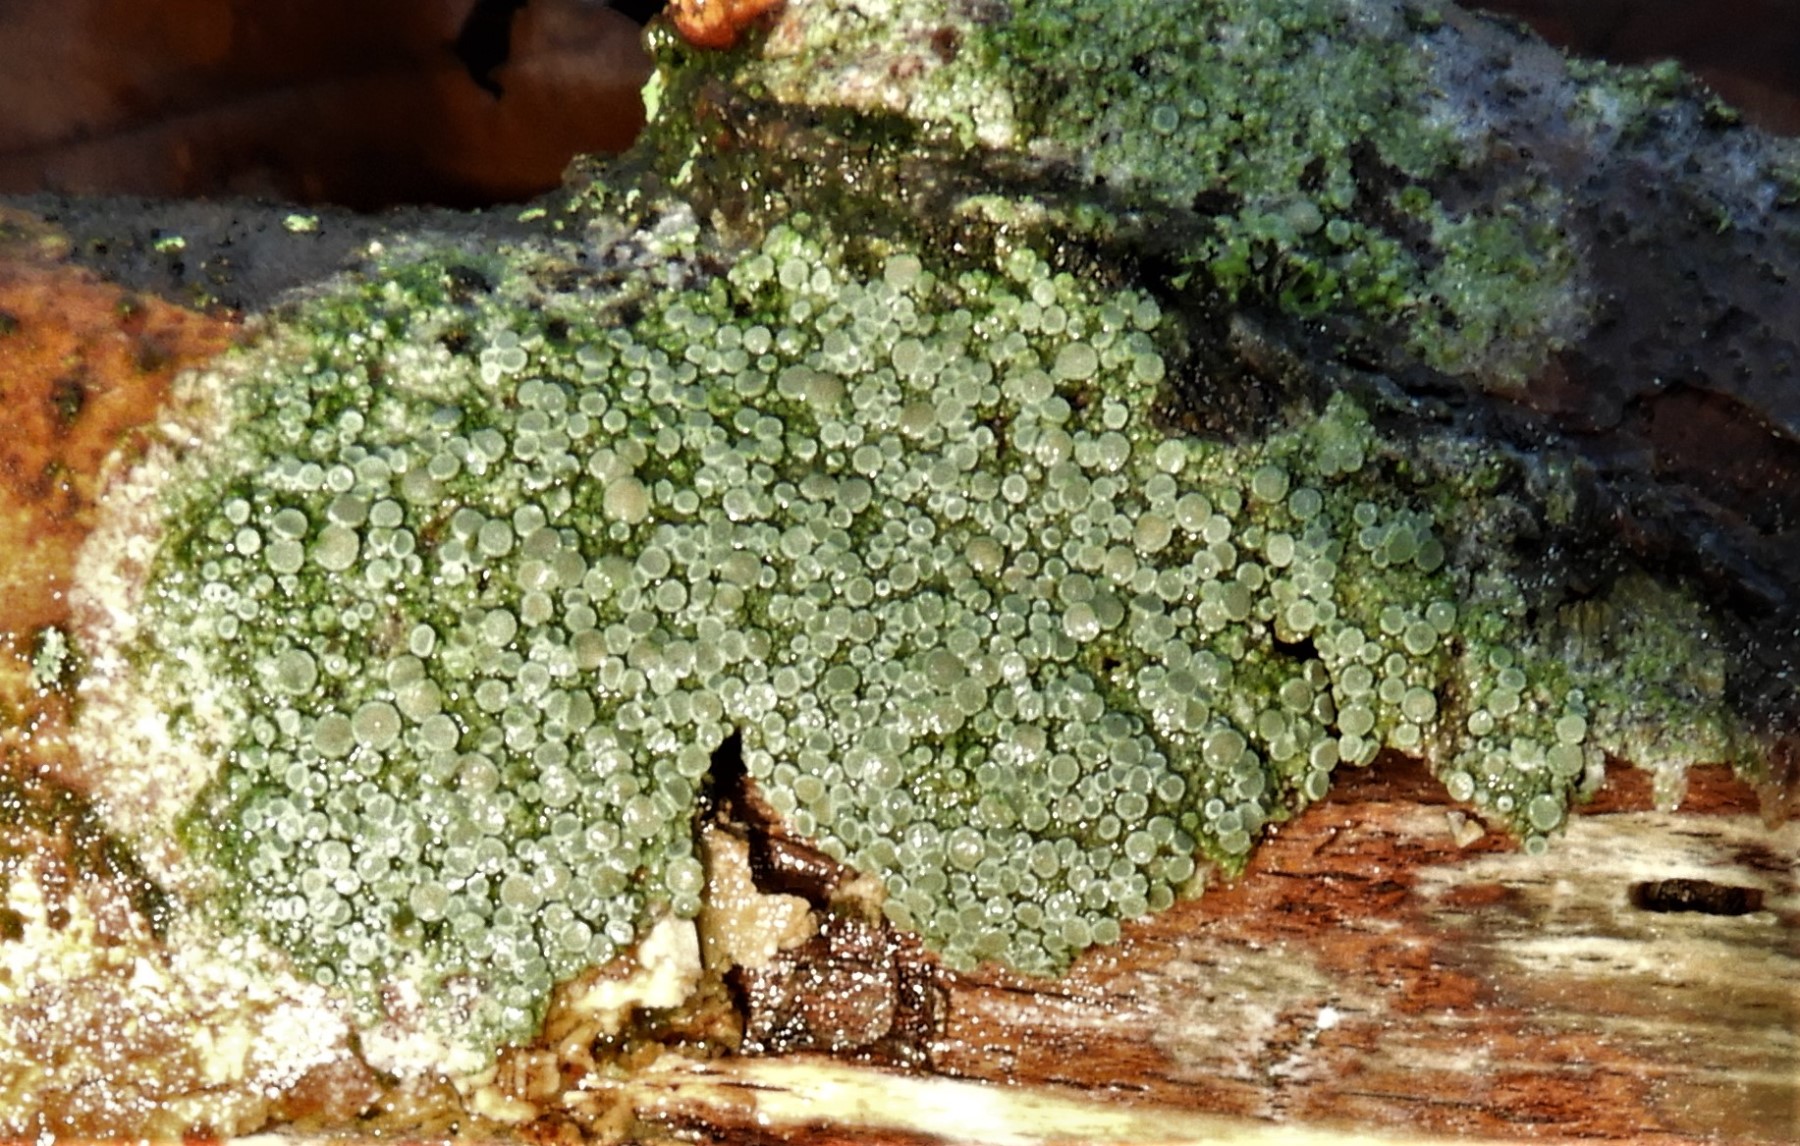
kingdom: Fungi
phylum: Ascomycota
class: Lecanoromycetes
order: Lecanorales
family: Lecanoraceae
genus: Lecanora
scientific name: Lecanora chlarotera
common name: brun kantskivelav
